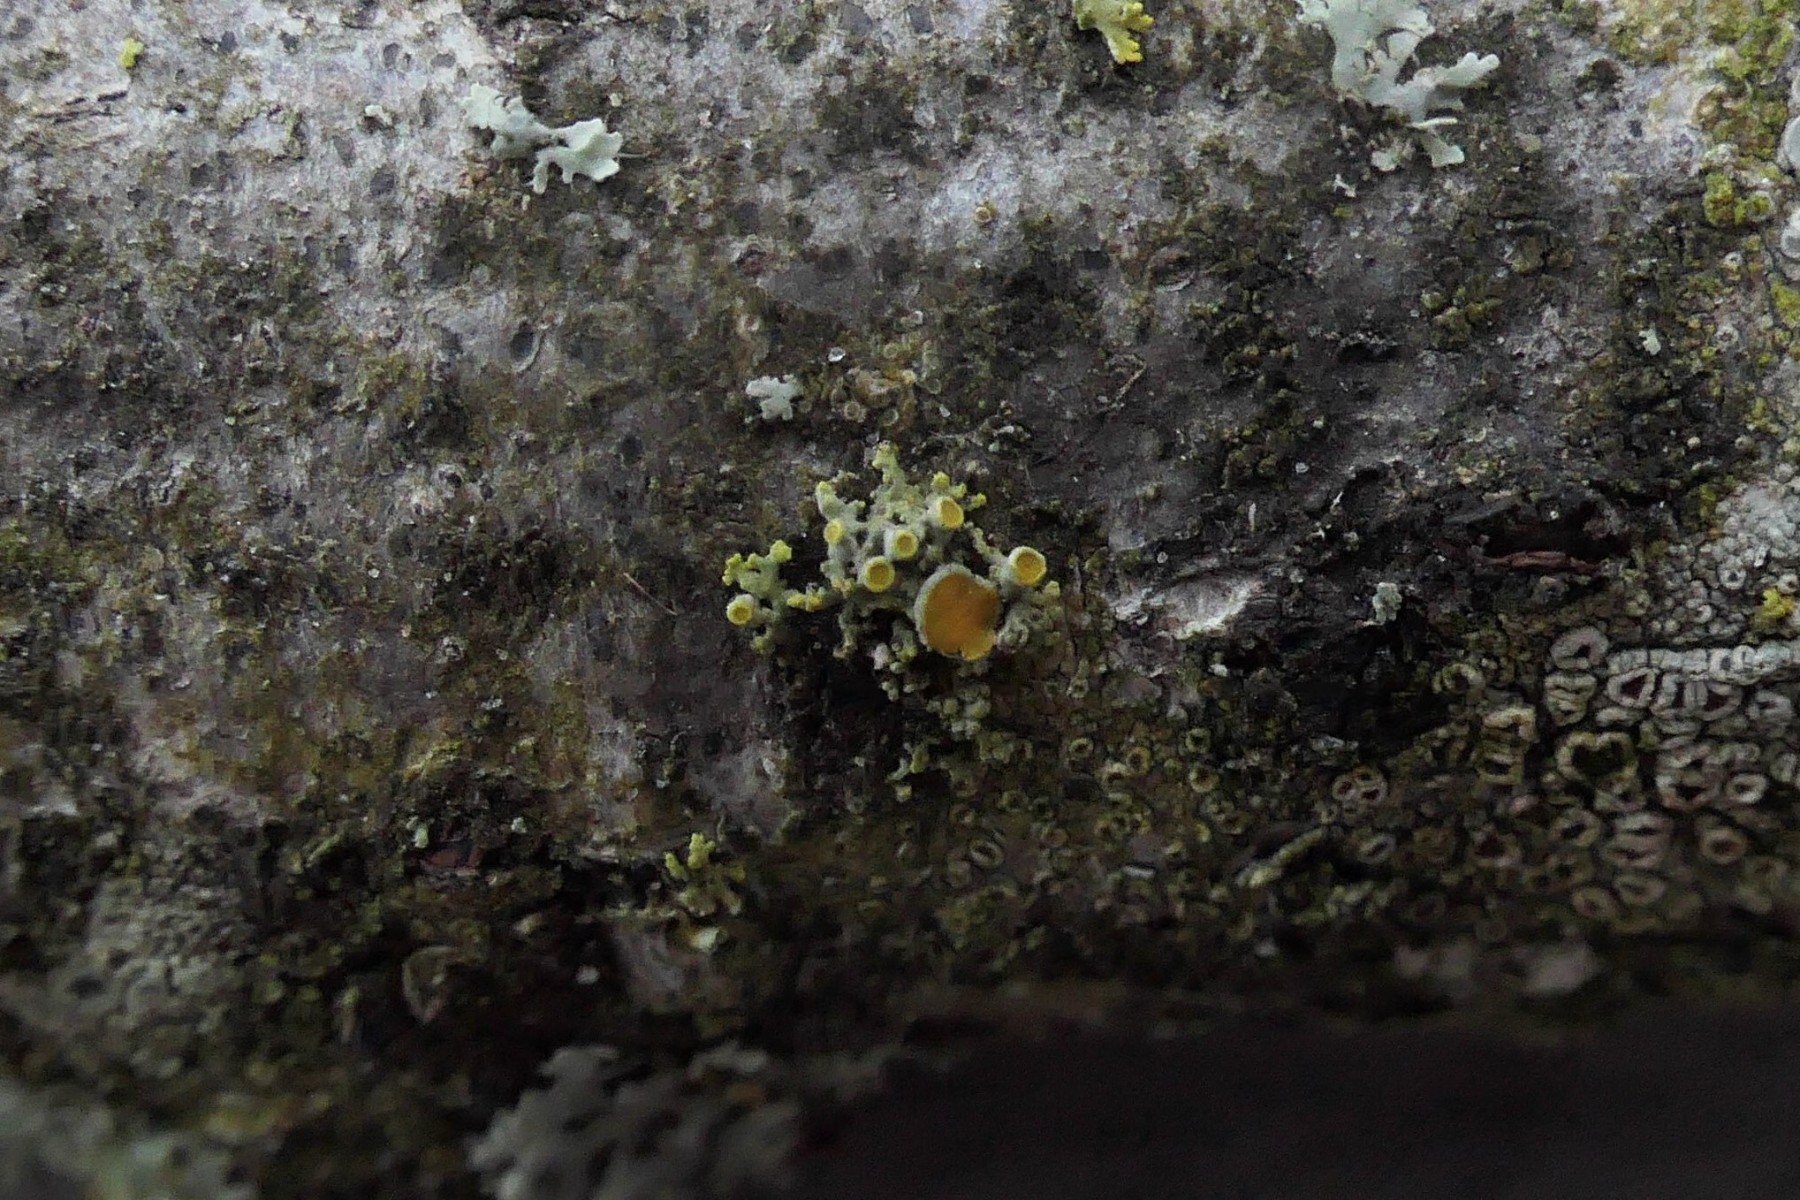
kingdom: Fungi
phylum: Ascomycota
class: Lecanoromycetes
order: Teloschistales
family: Teloschistaceae
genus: Polycauliona
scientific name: Polycauliona polycarpa
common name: mangefrugtet orangelav
